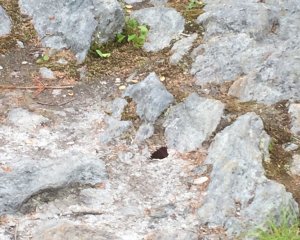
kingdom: Animalia
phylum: Arthropoda
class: Insecta
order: Lepidoptera
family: Nymphalidae
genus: Nymphalis
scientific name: Nymphalis antiopa
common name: Mourning Cloak
